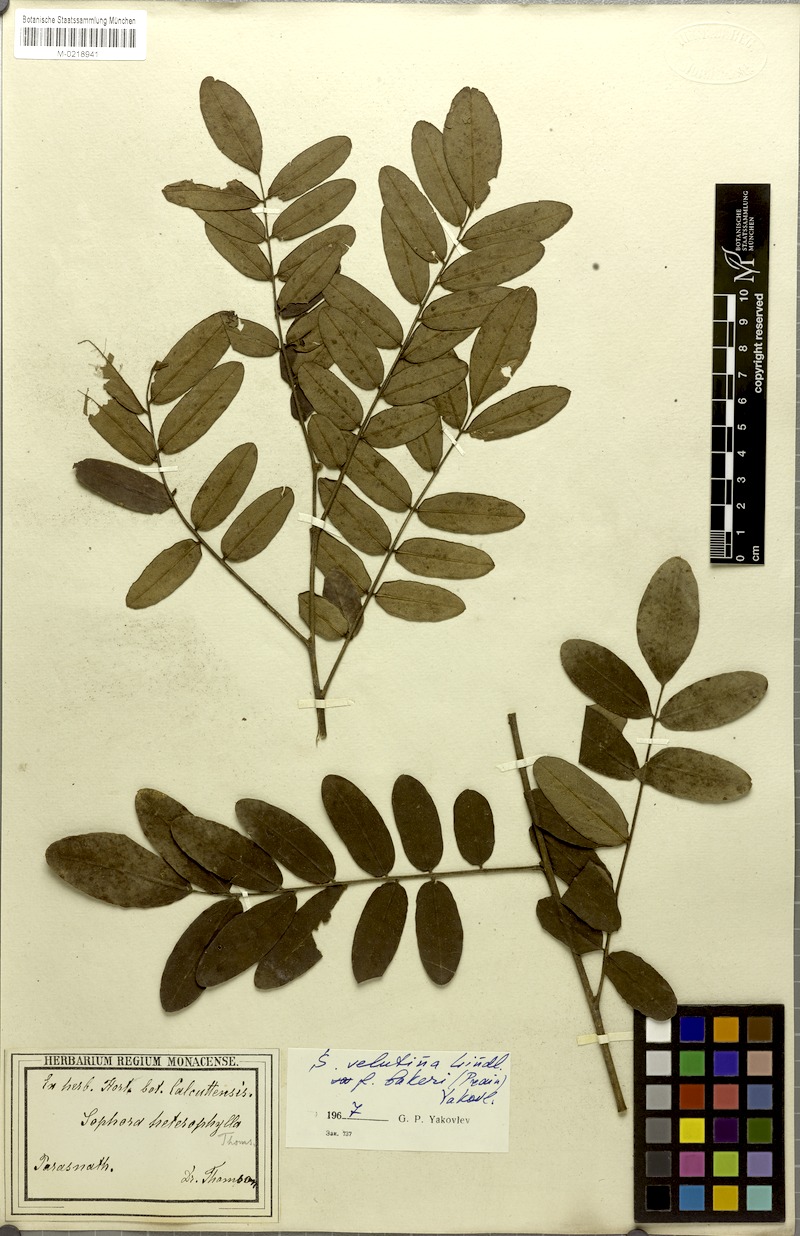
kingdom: Plantae
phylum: Tracheophyta
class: Magnoliopsida
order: Fabales
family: Fabaceae
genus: Sophora
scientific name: Sophora velutina
